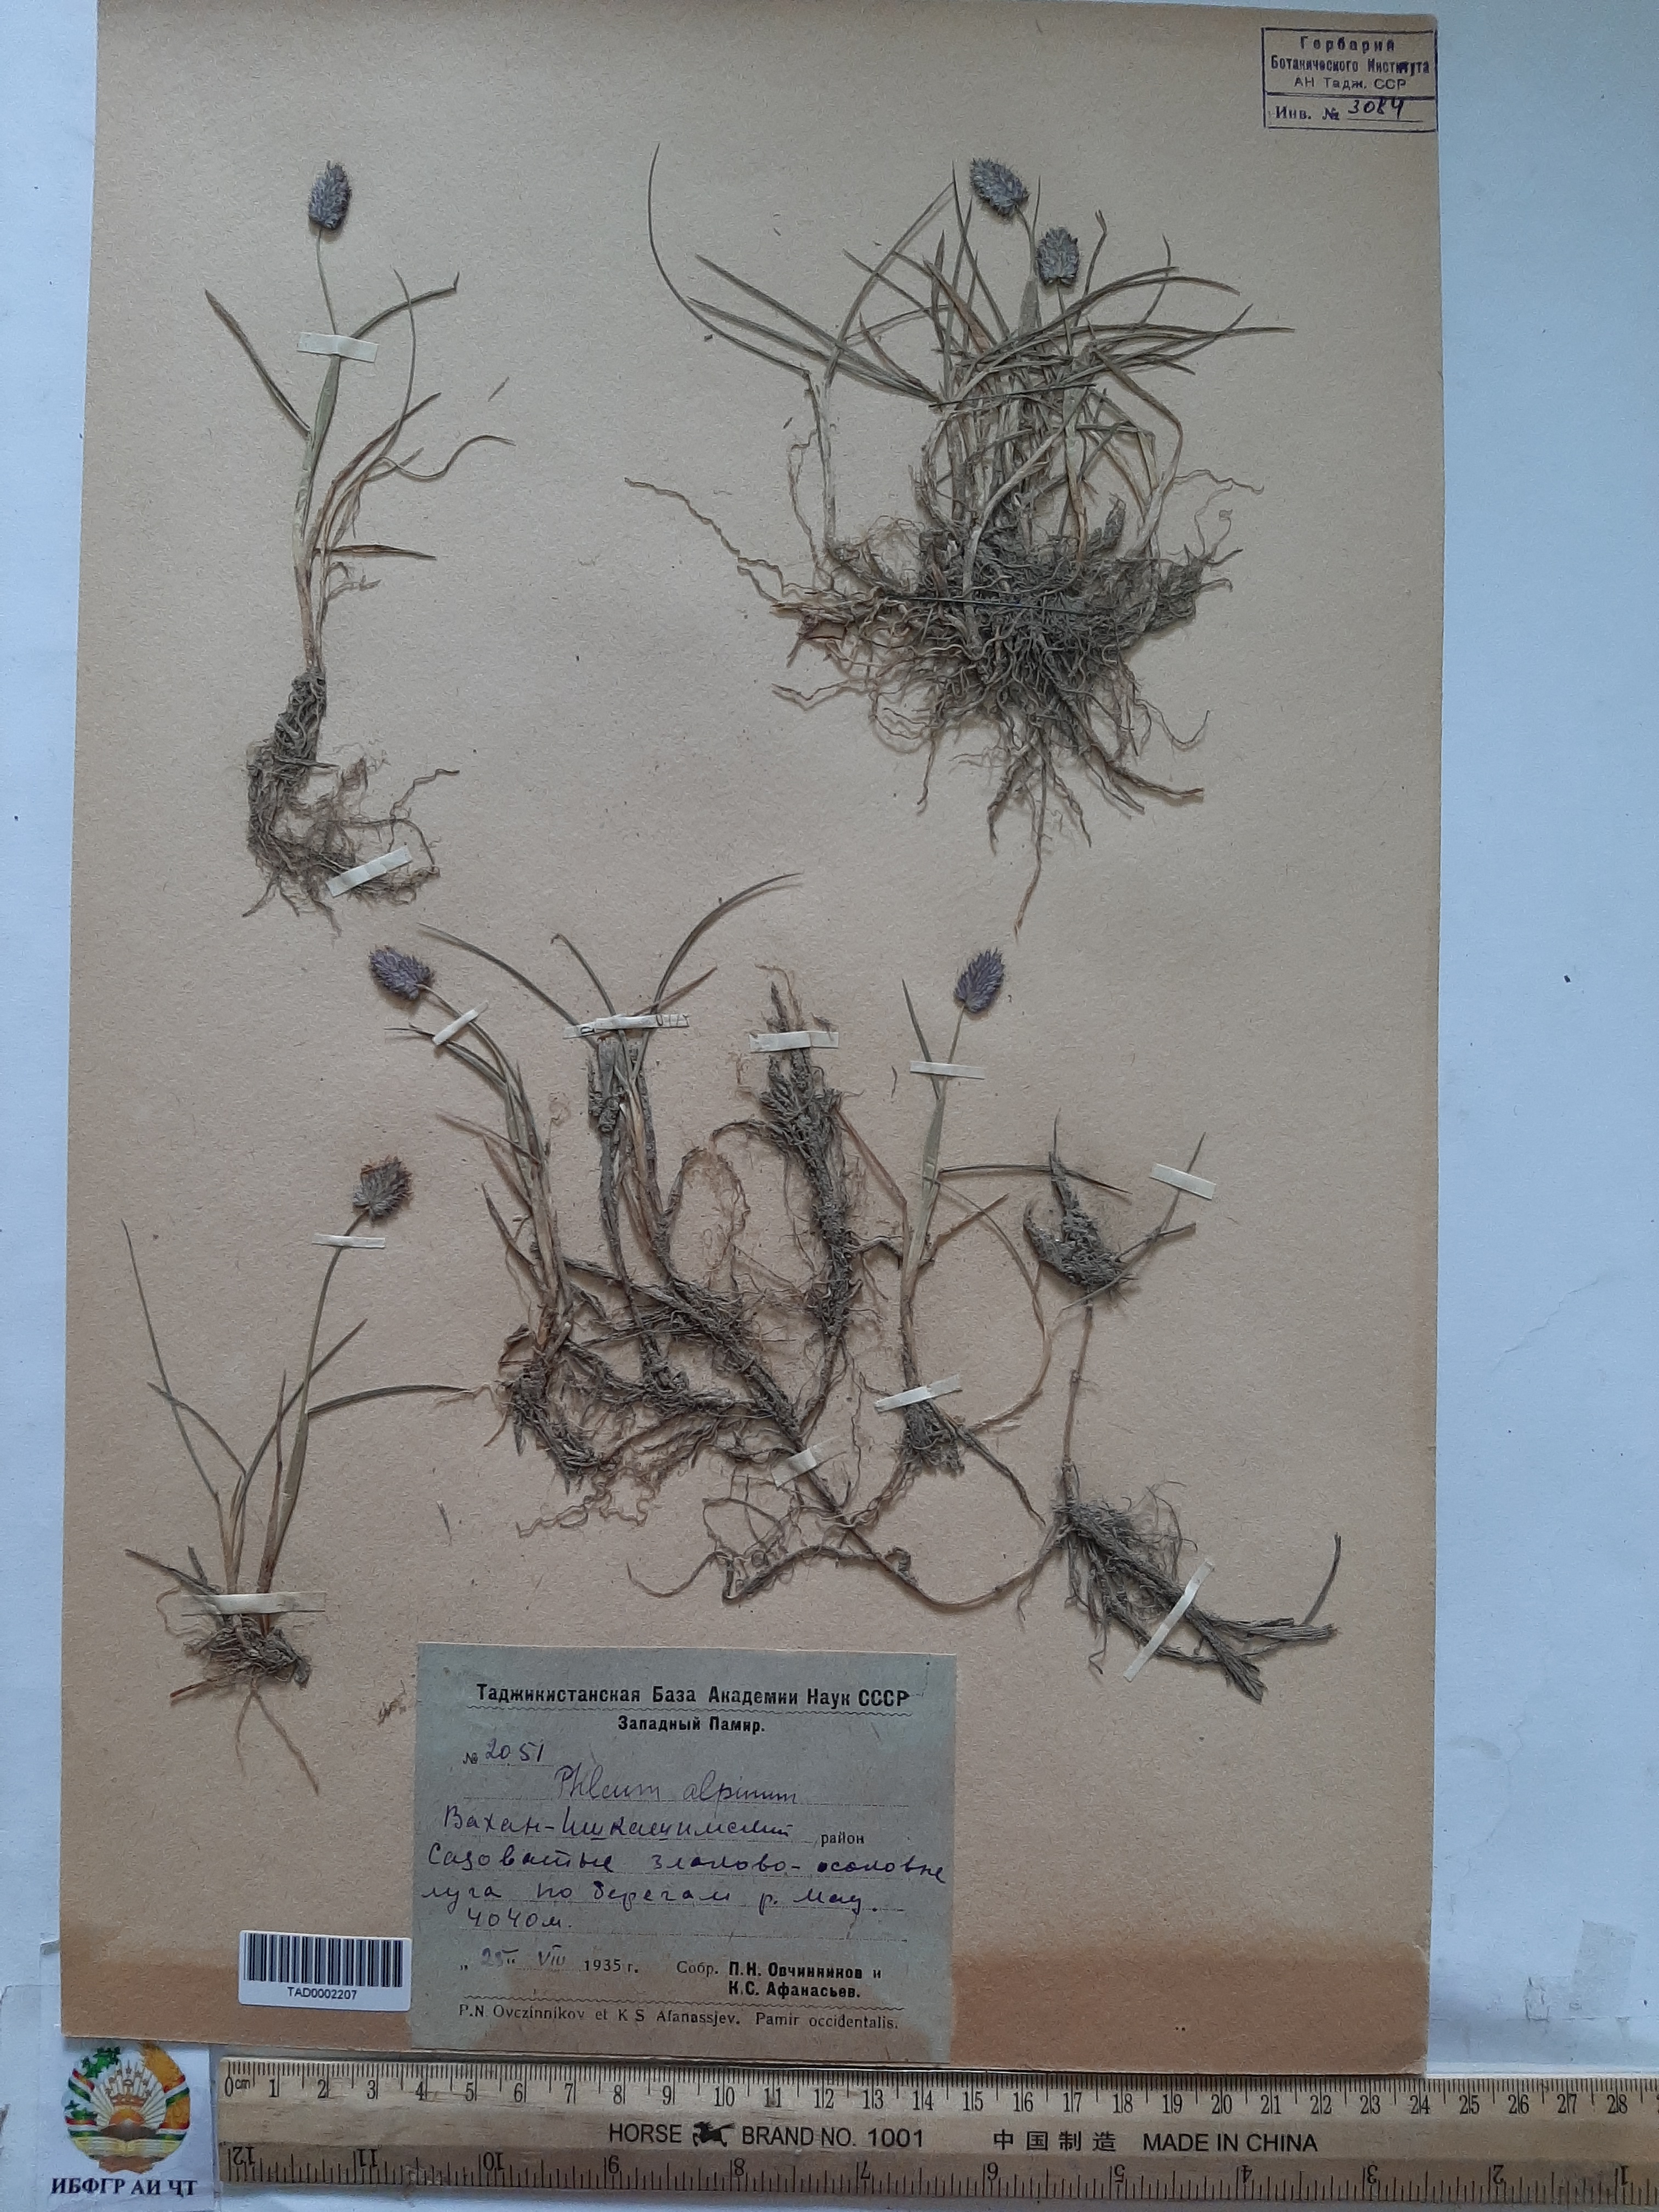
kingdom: Plantae
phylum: Tracheophyta
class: Liliopsida
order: Poales
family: Poaceae
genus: Phleum
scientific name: Phleum alpinum
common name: Alpine cat's-tail
